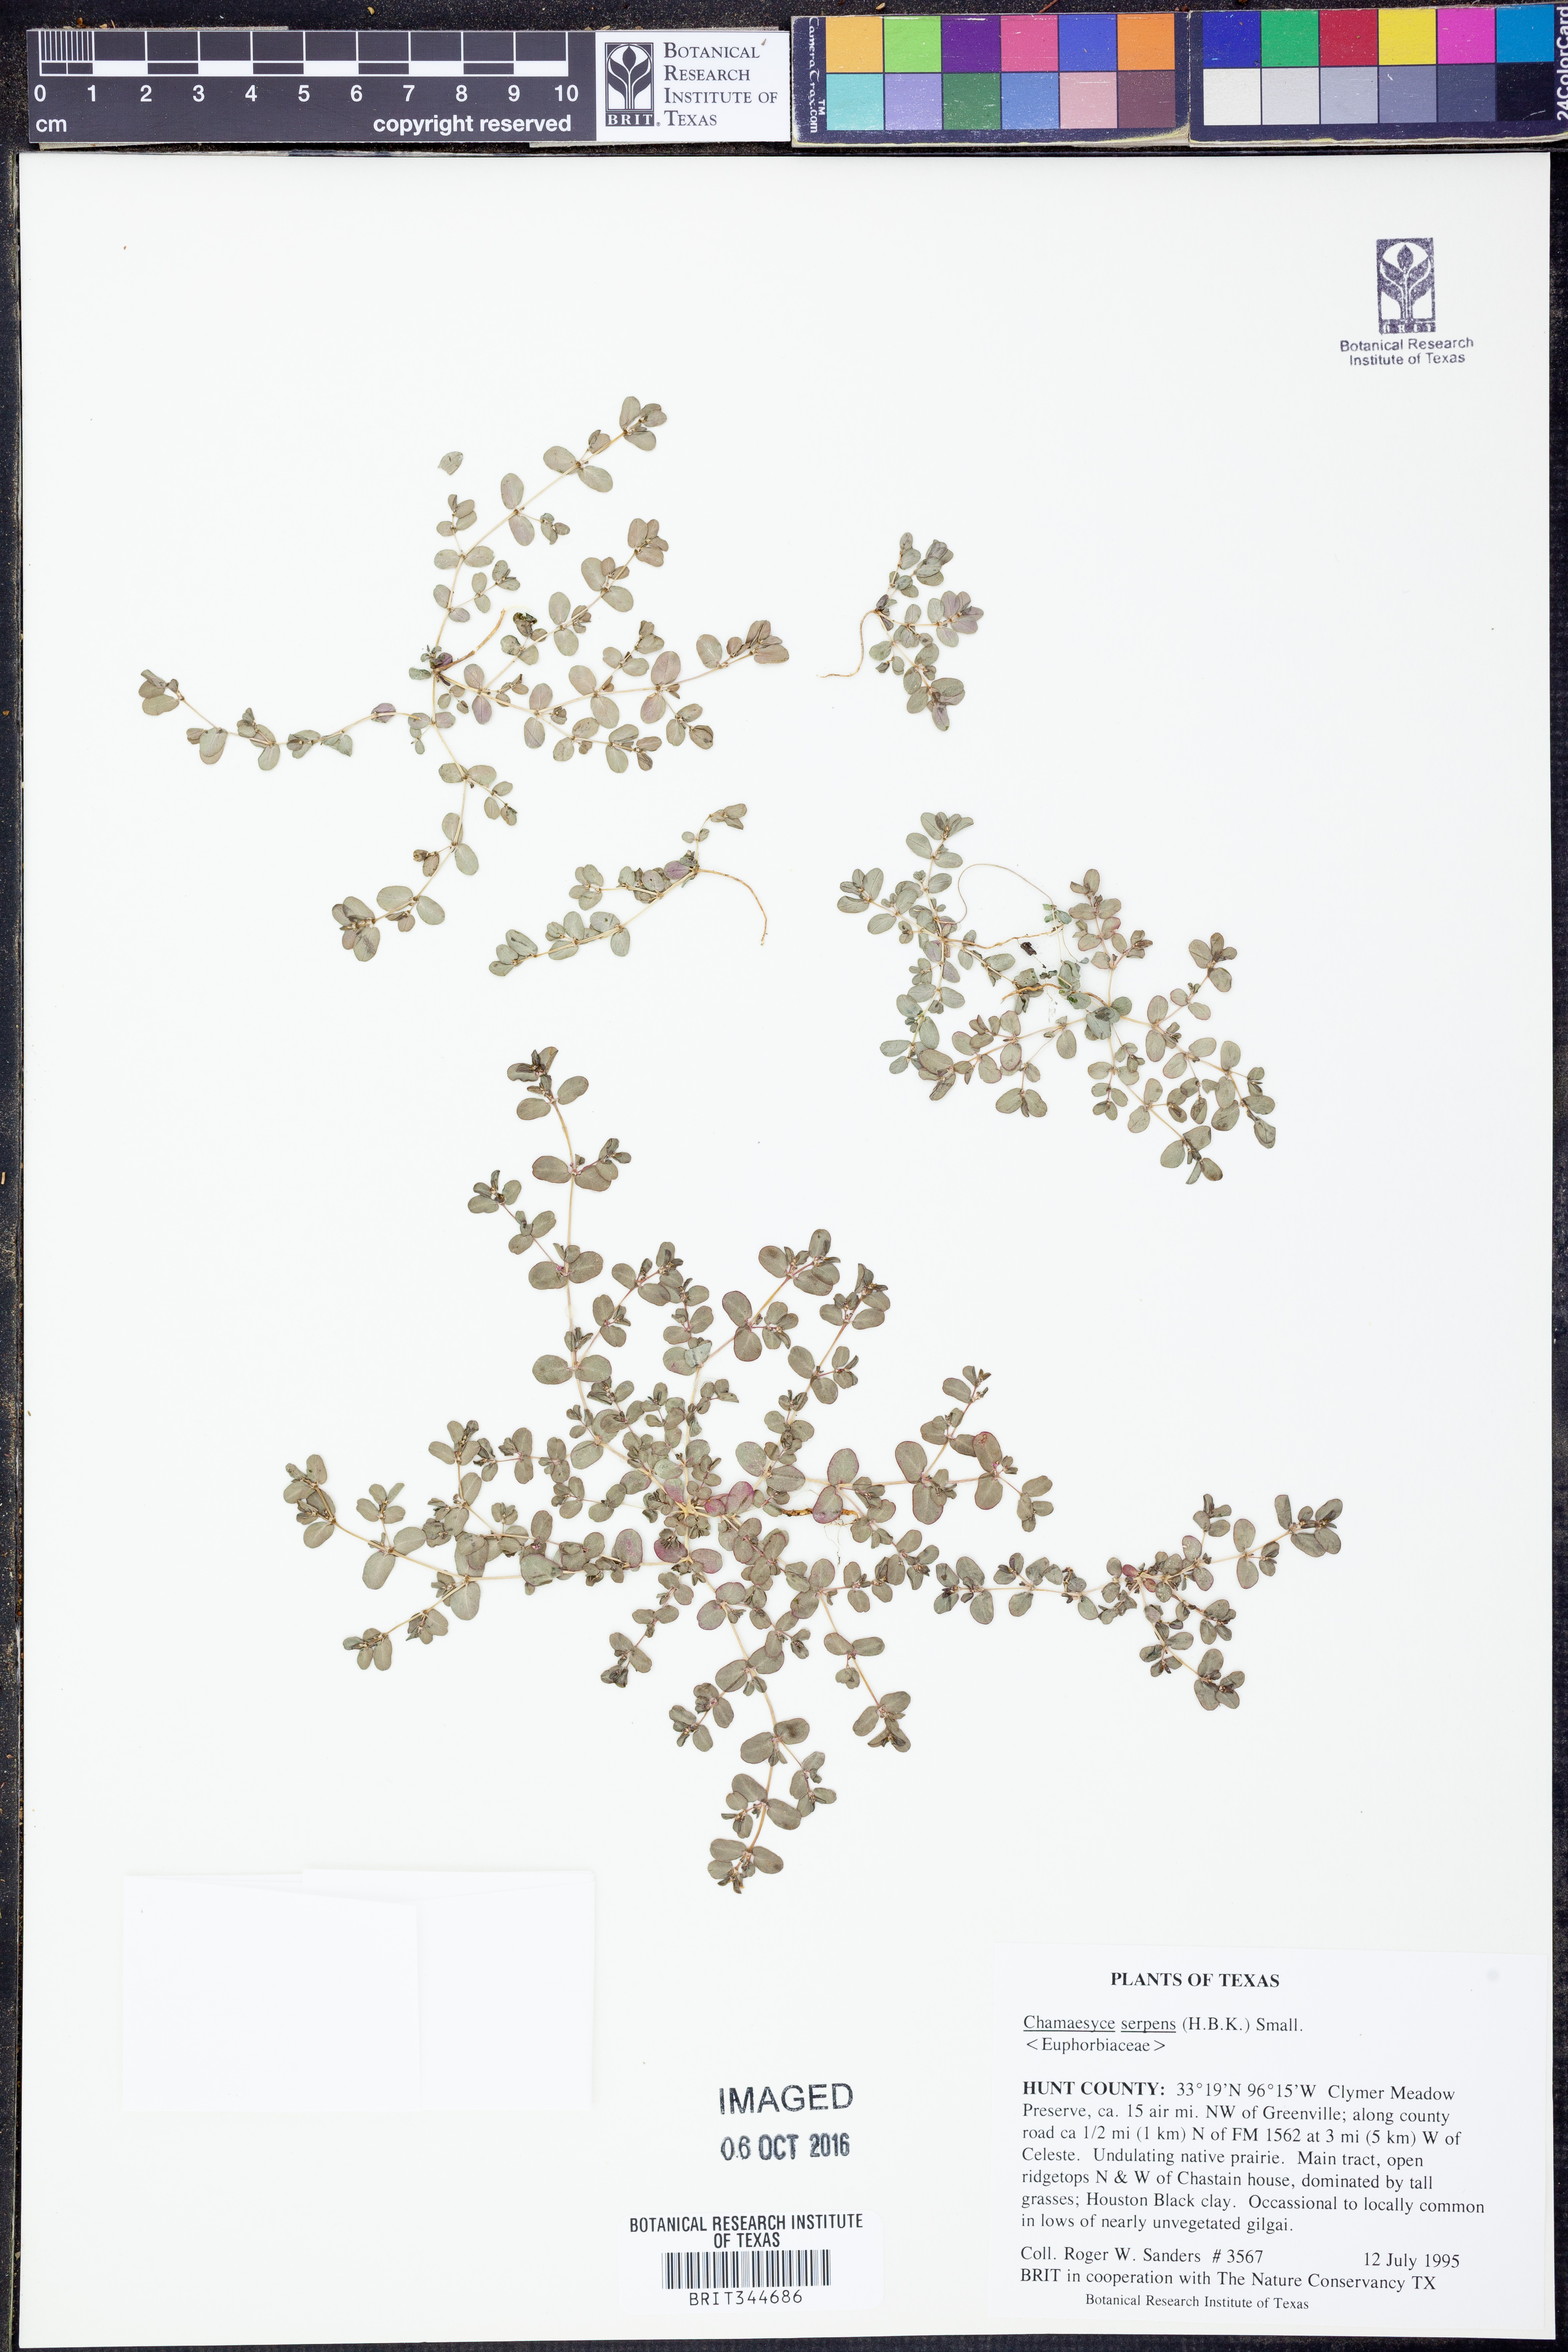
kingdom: Plantae
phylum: Tracheophyta
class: Magnoliopsida
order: Malpighiales
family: Euphorbiaceae
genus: Euphorbia
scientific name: Euphorbia serpens
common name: Matted sandmat
